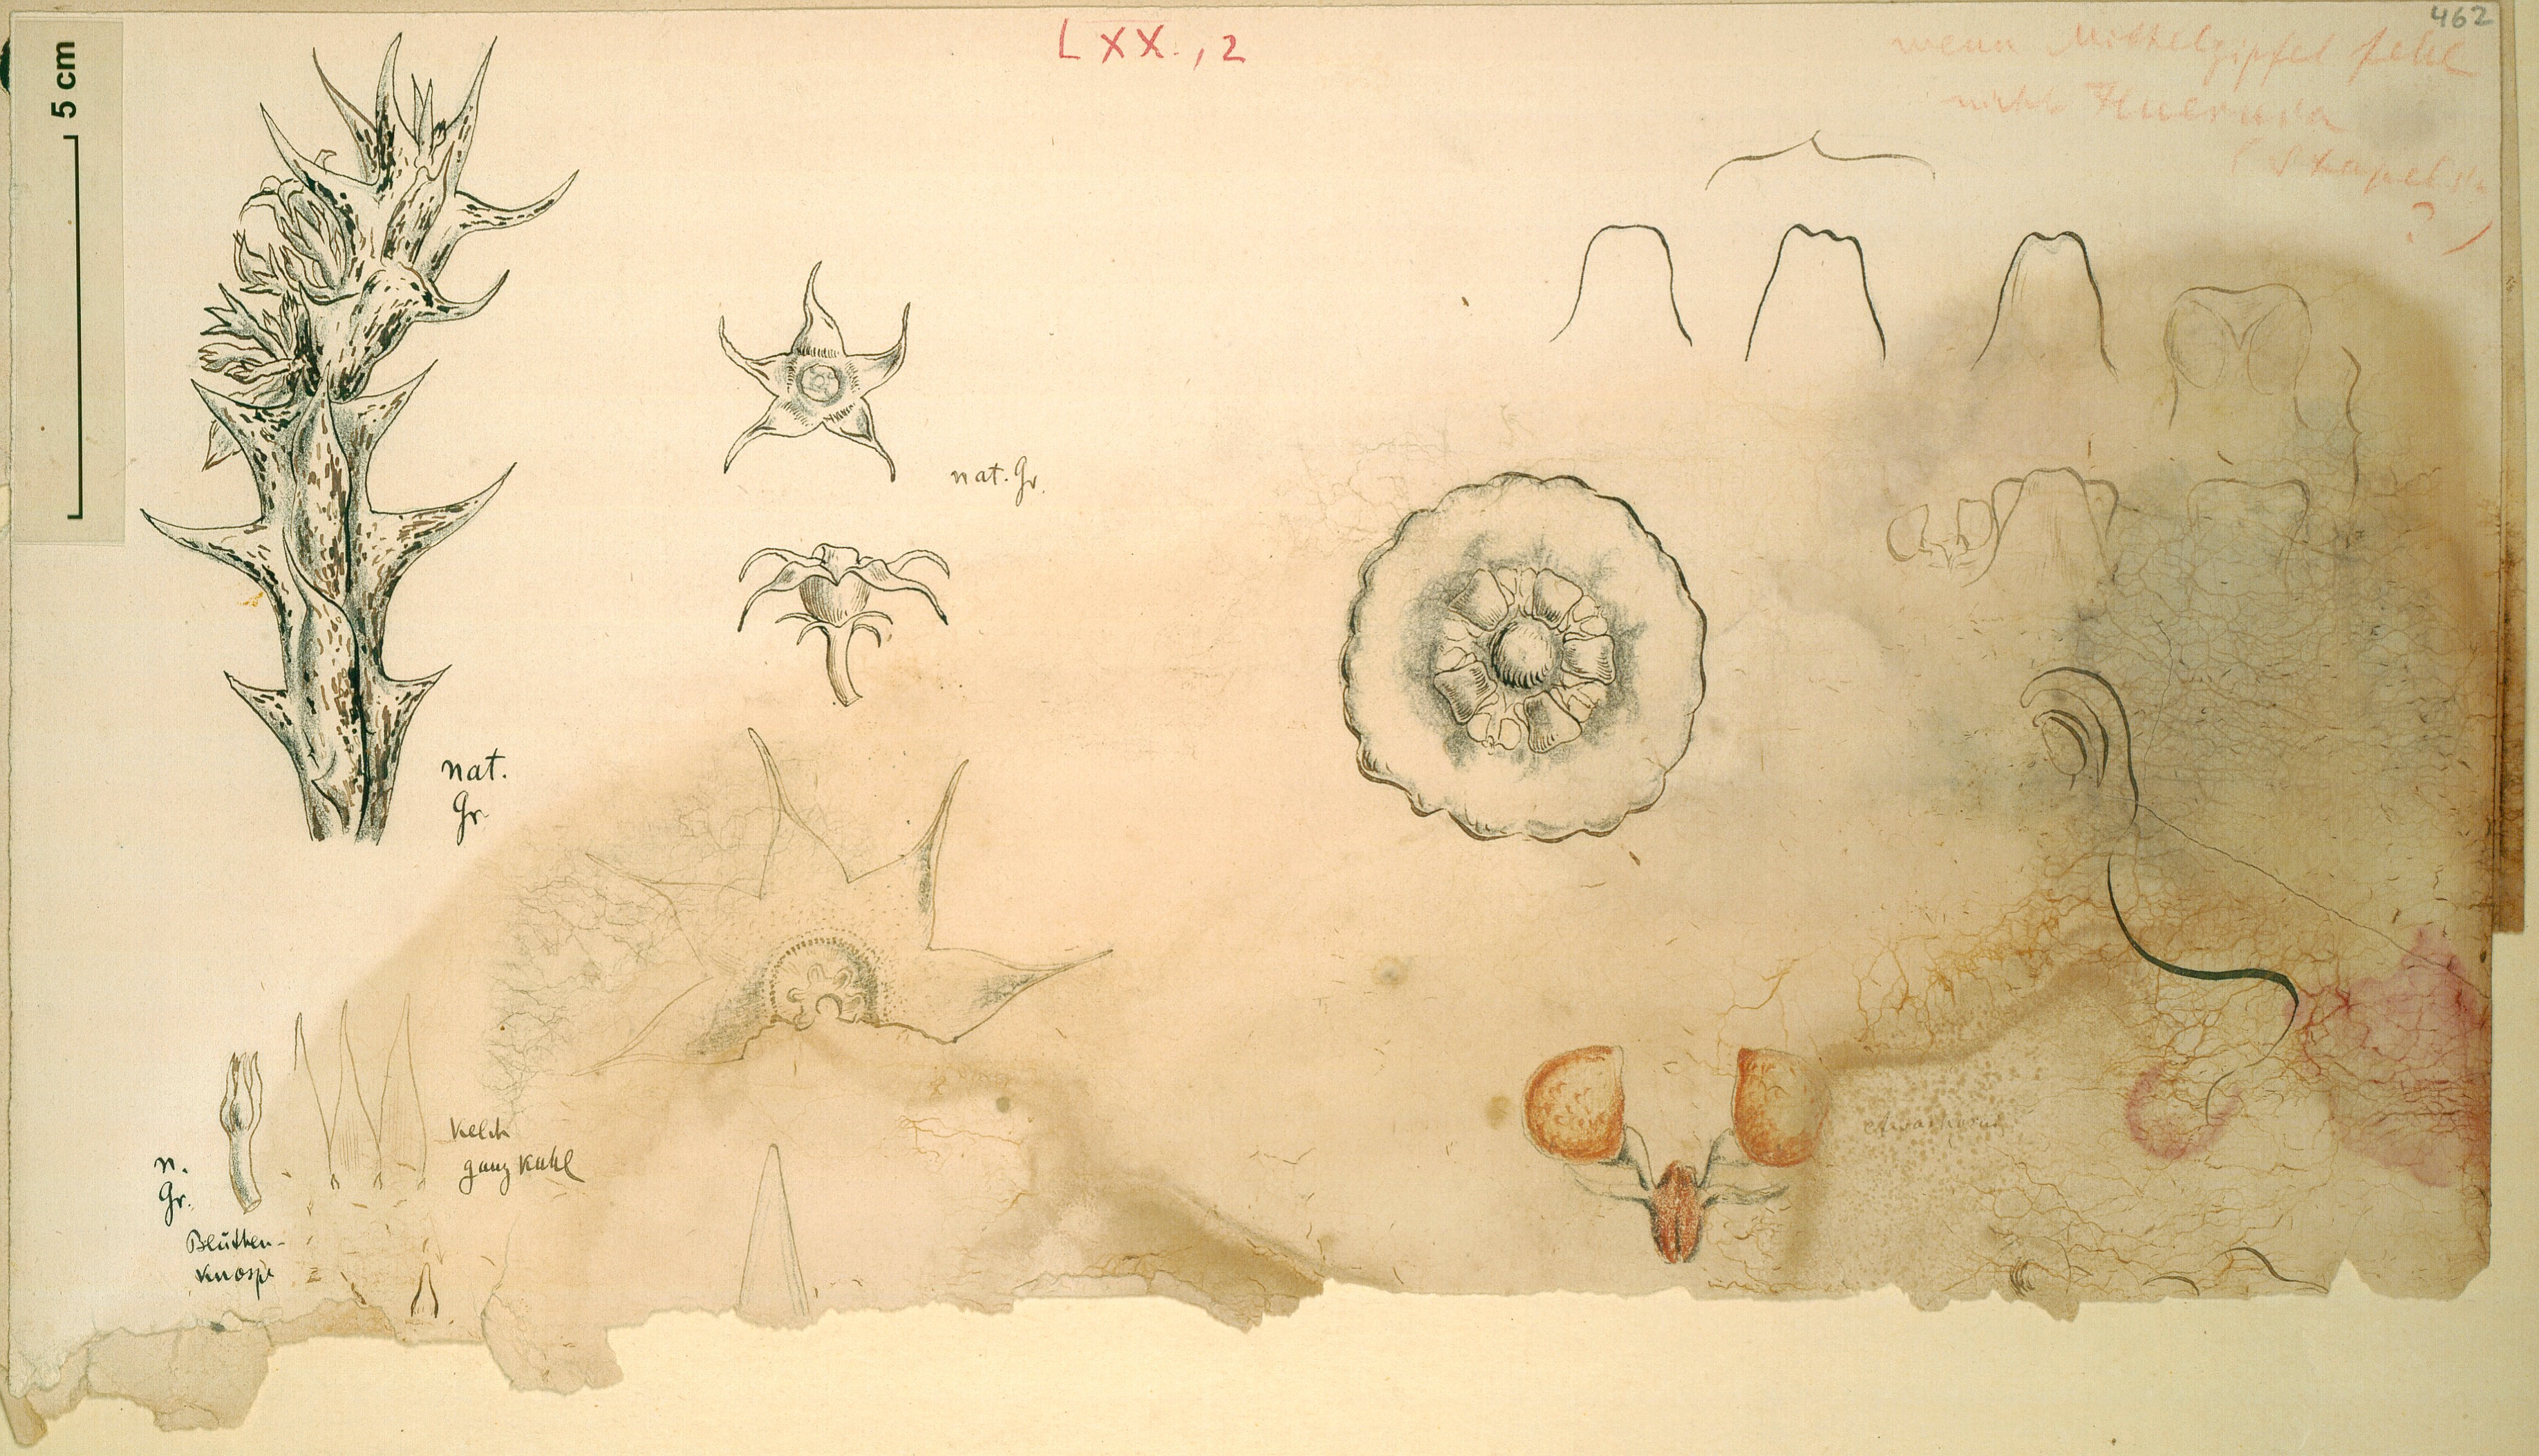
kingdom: Plantae
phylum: Tracheophyta
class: Magnoliopsida
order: Gentianales
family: Apocynaceae
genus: Huernia
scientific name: Huernia
